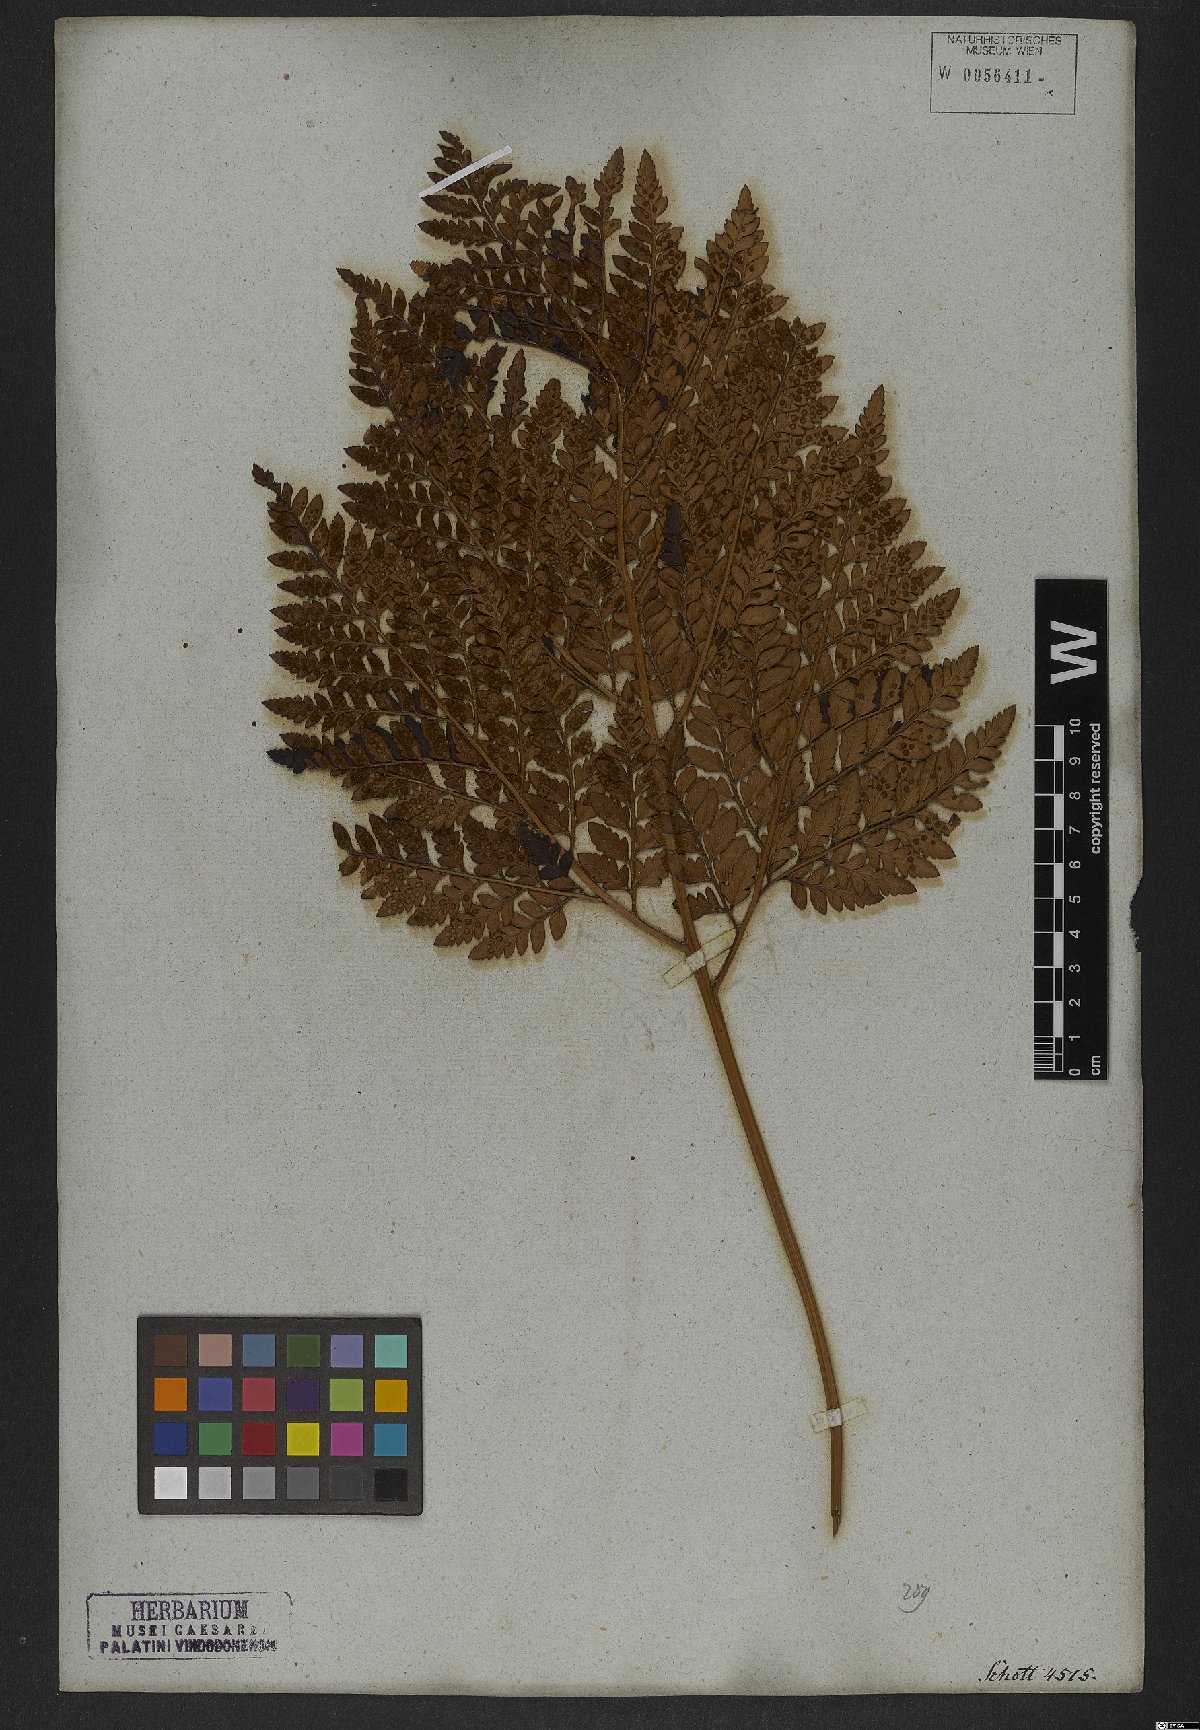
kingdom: Plantae
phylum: Tracheophyta
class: Polypodiopsida
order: Polypodiales
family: Dryopteridaceae
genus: Rumohra
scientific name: Rumohra adiantiformis
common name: Leather fern
